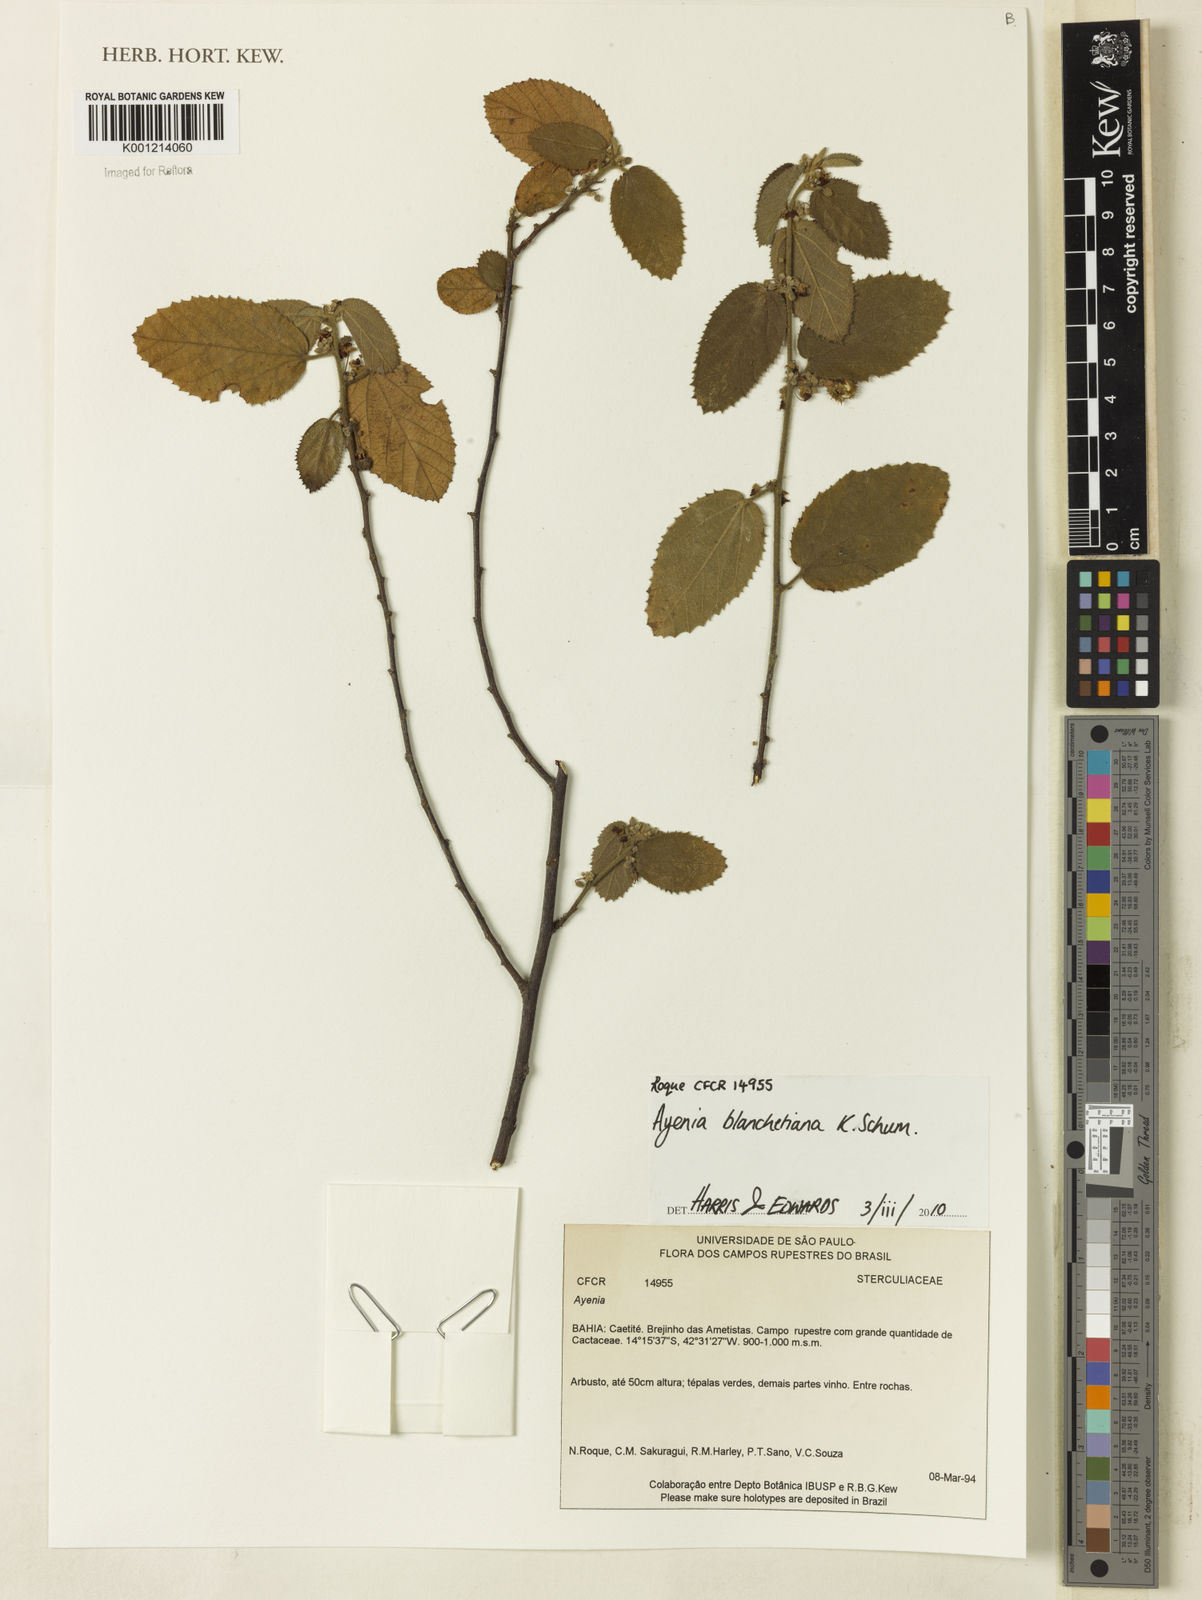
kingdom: Plantae
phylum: Tracheophyta
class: Magnoliopsida
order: Malvales
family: Malvaceae
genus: Ayenia
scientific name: Ayenia blanchetiana
